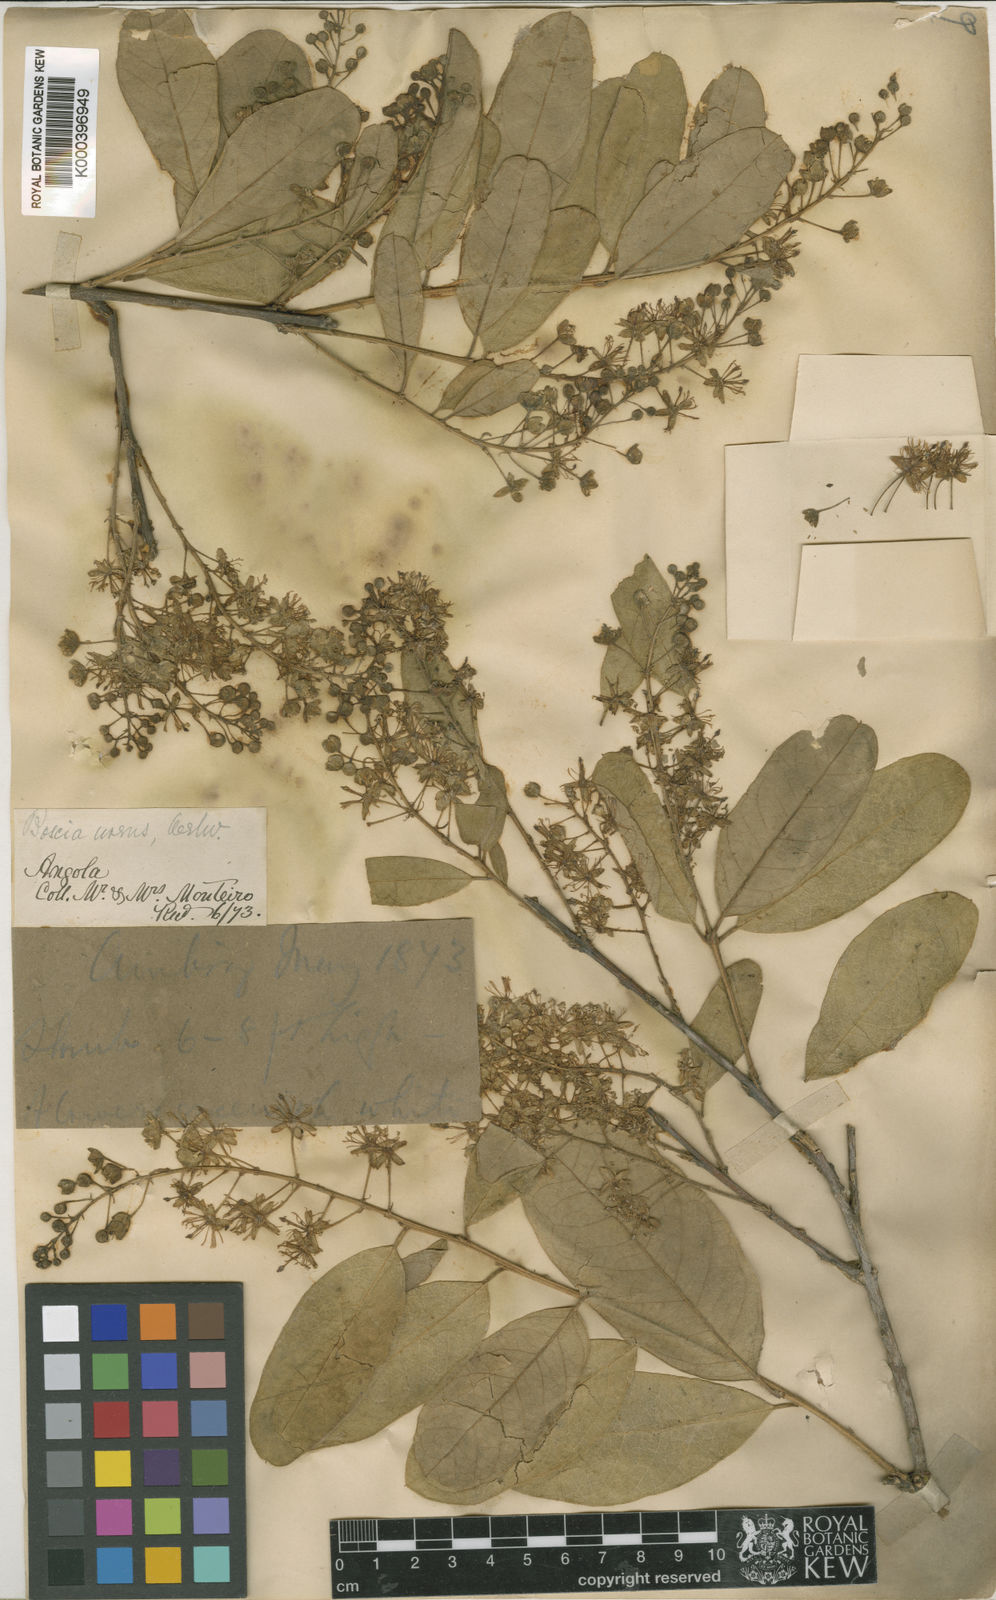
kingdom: Plantae
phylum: Tracheophyta
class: Magnoliopsida
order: Brassicales
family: Capparaceae
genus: Boscia
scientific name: Boscia
